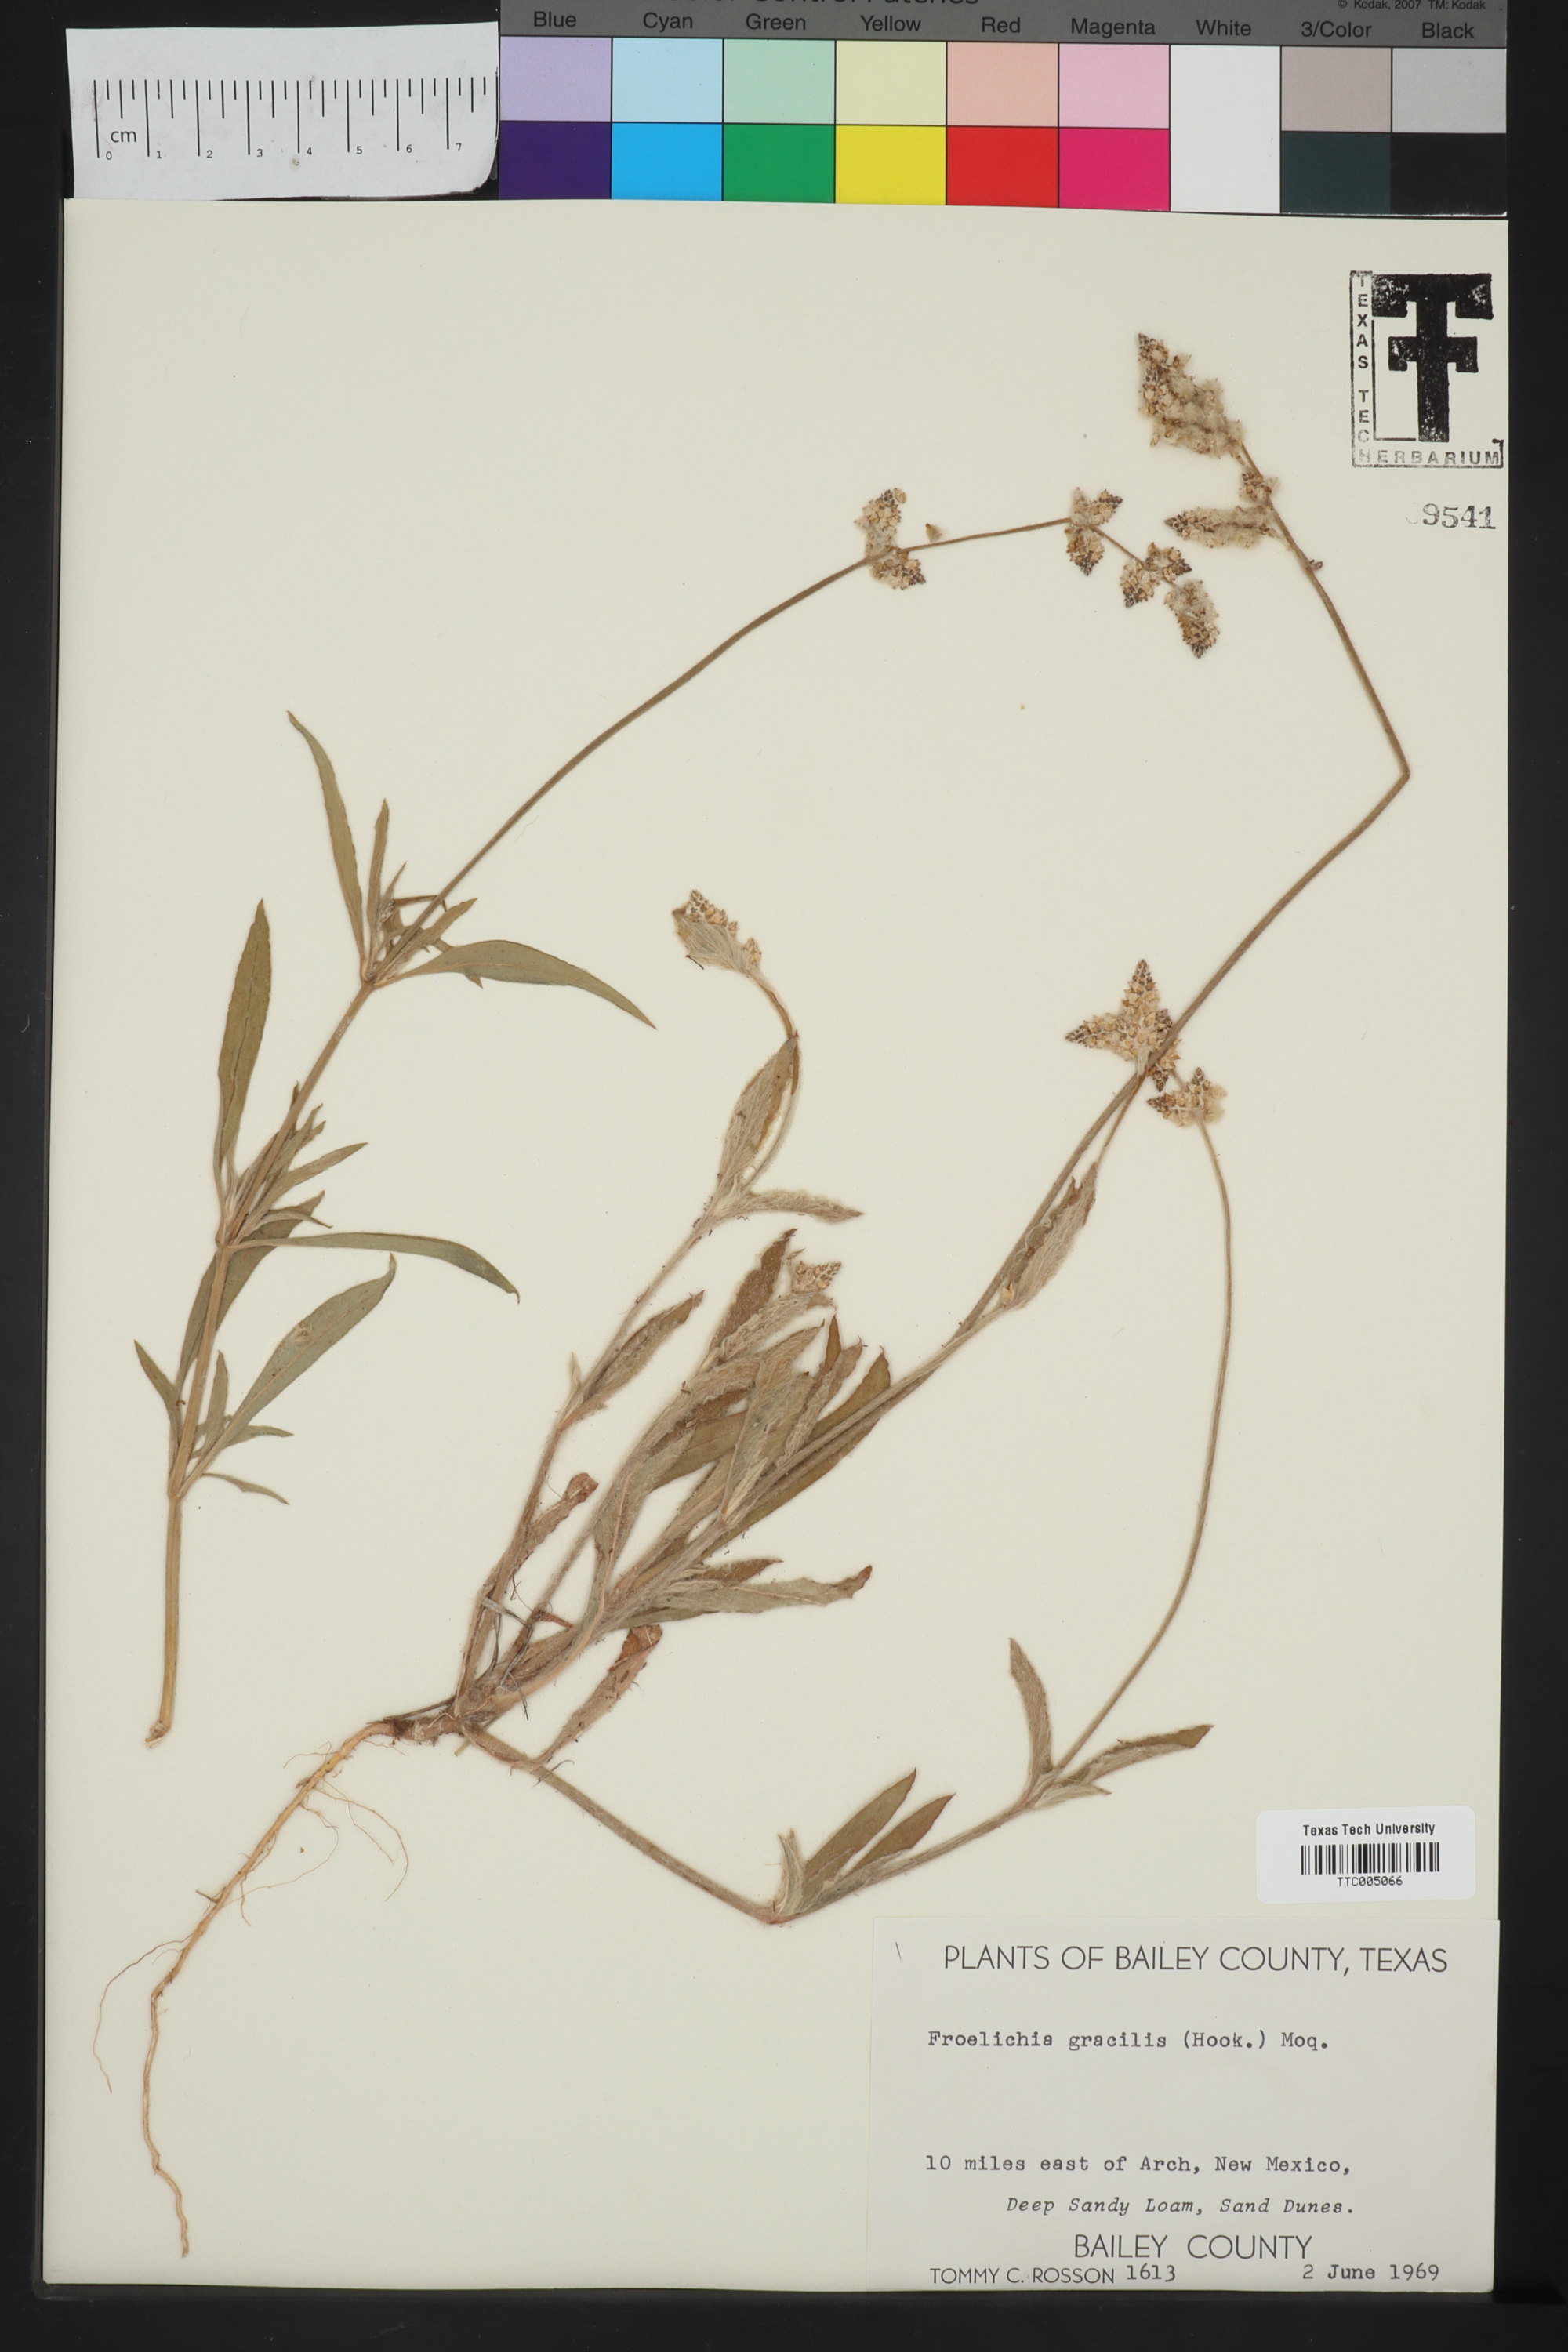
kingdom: Plantae
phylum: Tracheophyta
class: Magnoliopsida
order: Caryophyllales
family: Amaranthaceae
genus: Froelichia
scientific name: Froelichia gracilis
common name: Slender cottonweed
